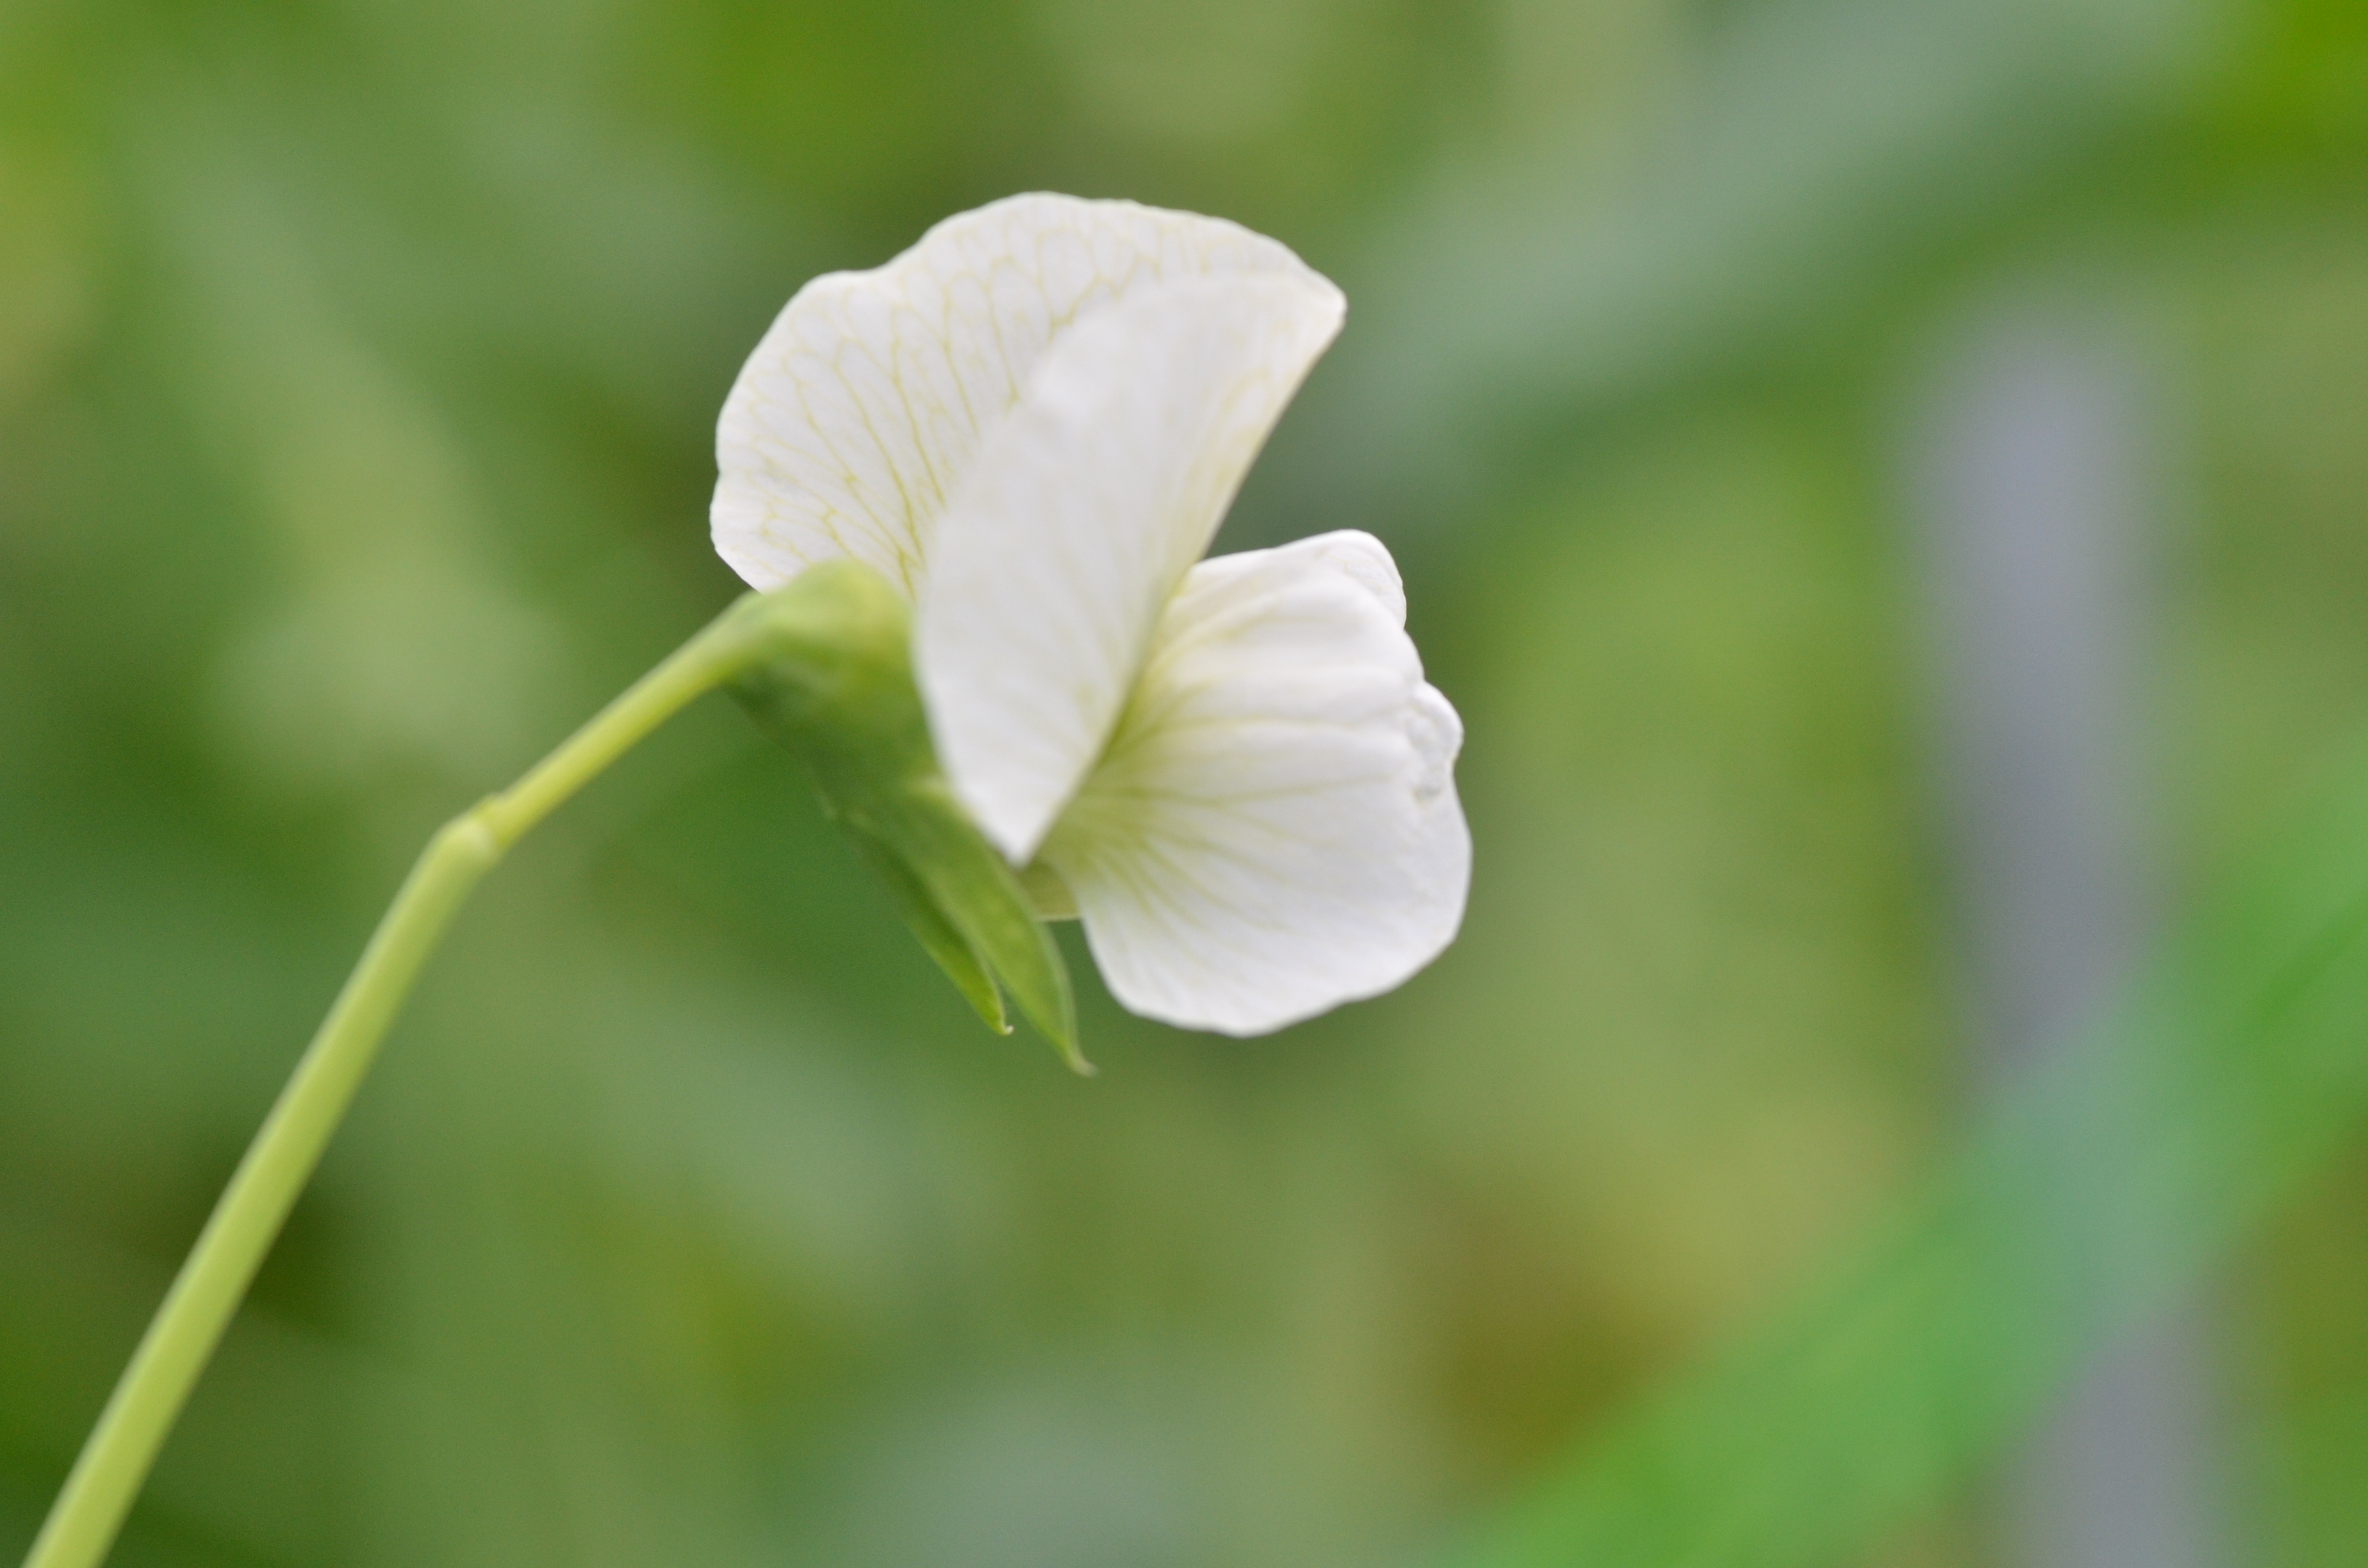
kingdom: Plantae
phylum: Tracheophyta
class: Magnoliopsida
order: Fabales
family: Fabaceae
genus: Lathyrus
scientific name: Lathyrus oleraceus
